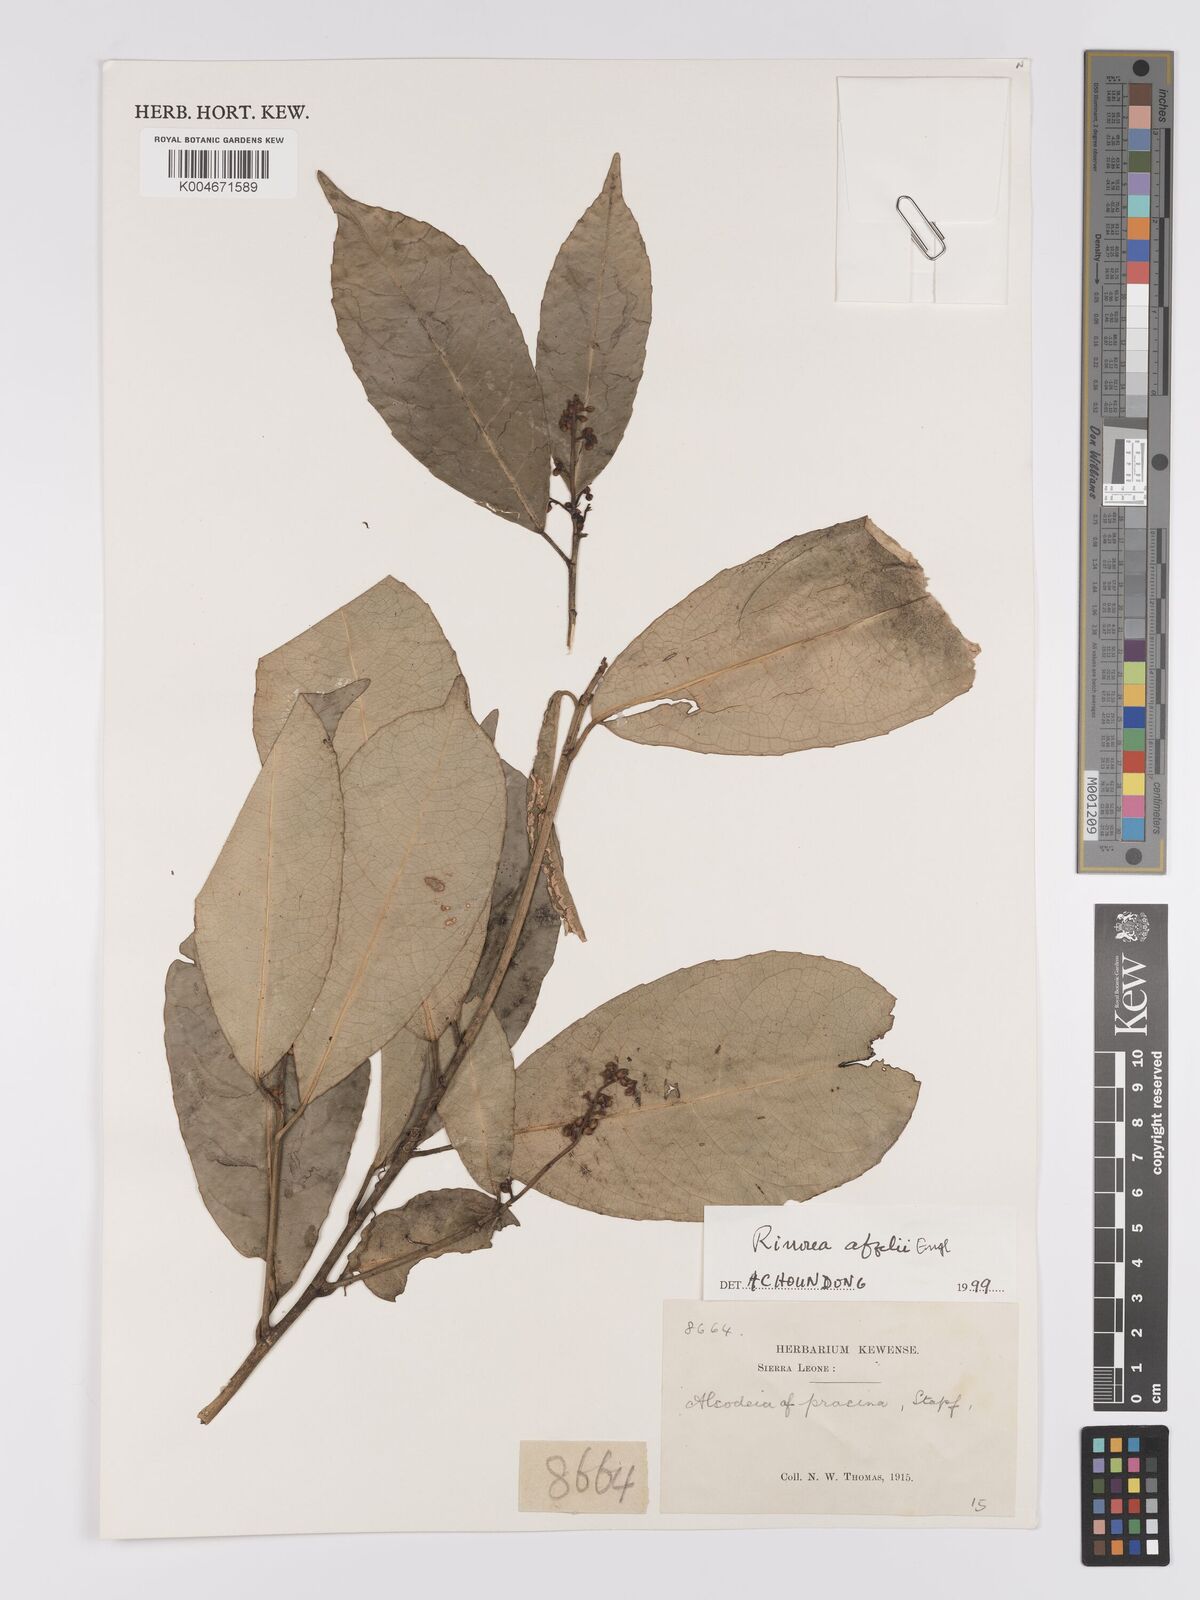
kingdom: Plantae
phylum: Tracheophyta
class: Magnoliopsida
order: Malpighiales
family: Violaceae
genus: Rinorea
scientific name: Rinorea afzelii
